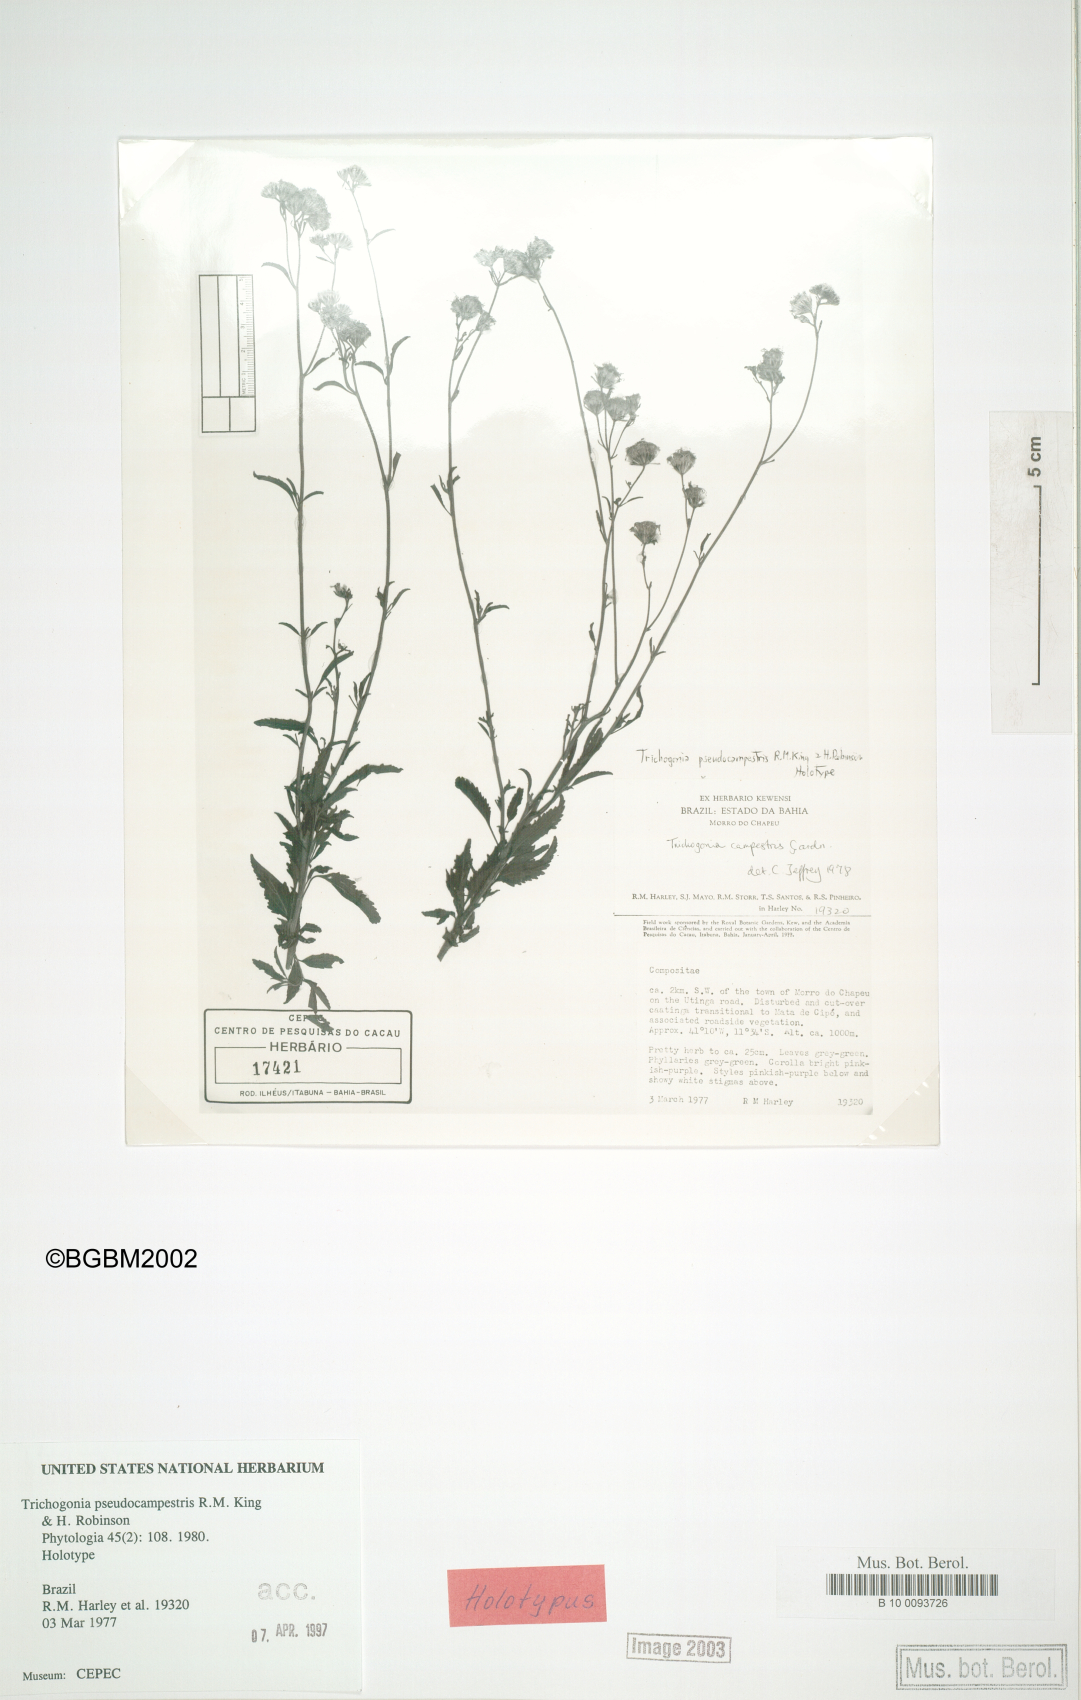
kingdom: Plantae
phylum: Tracheophyta
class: Magnoliopsida
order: Asterales
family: Asteraceae
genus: Trichogonia
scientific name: Trichogonia campestris
